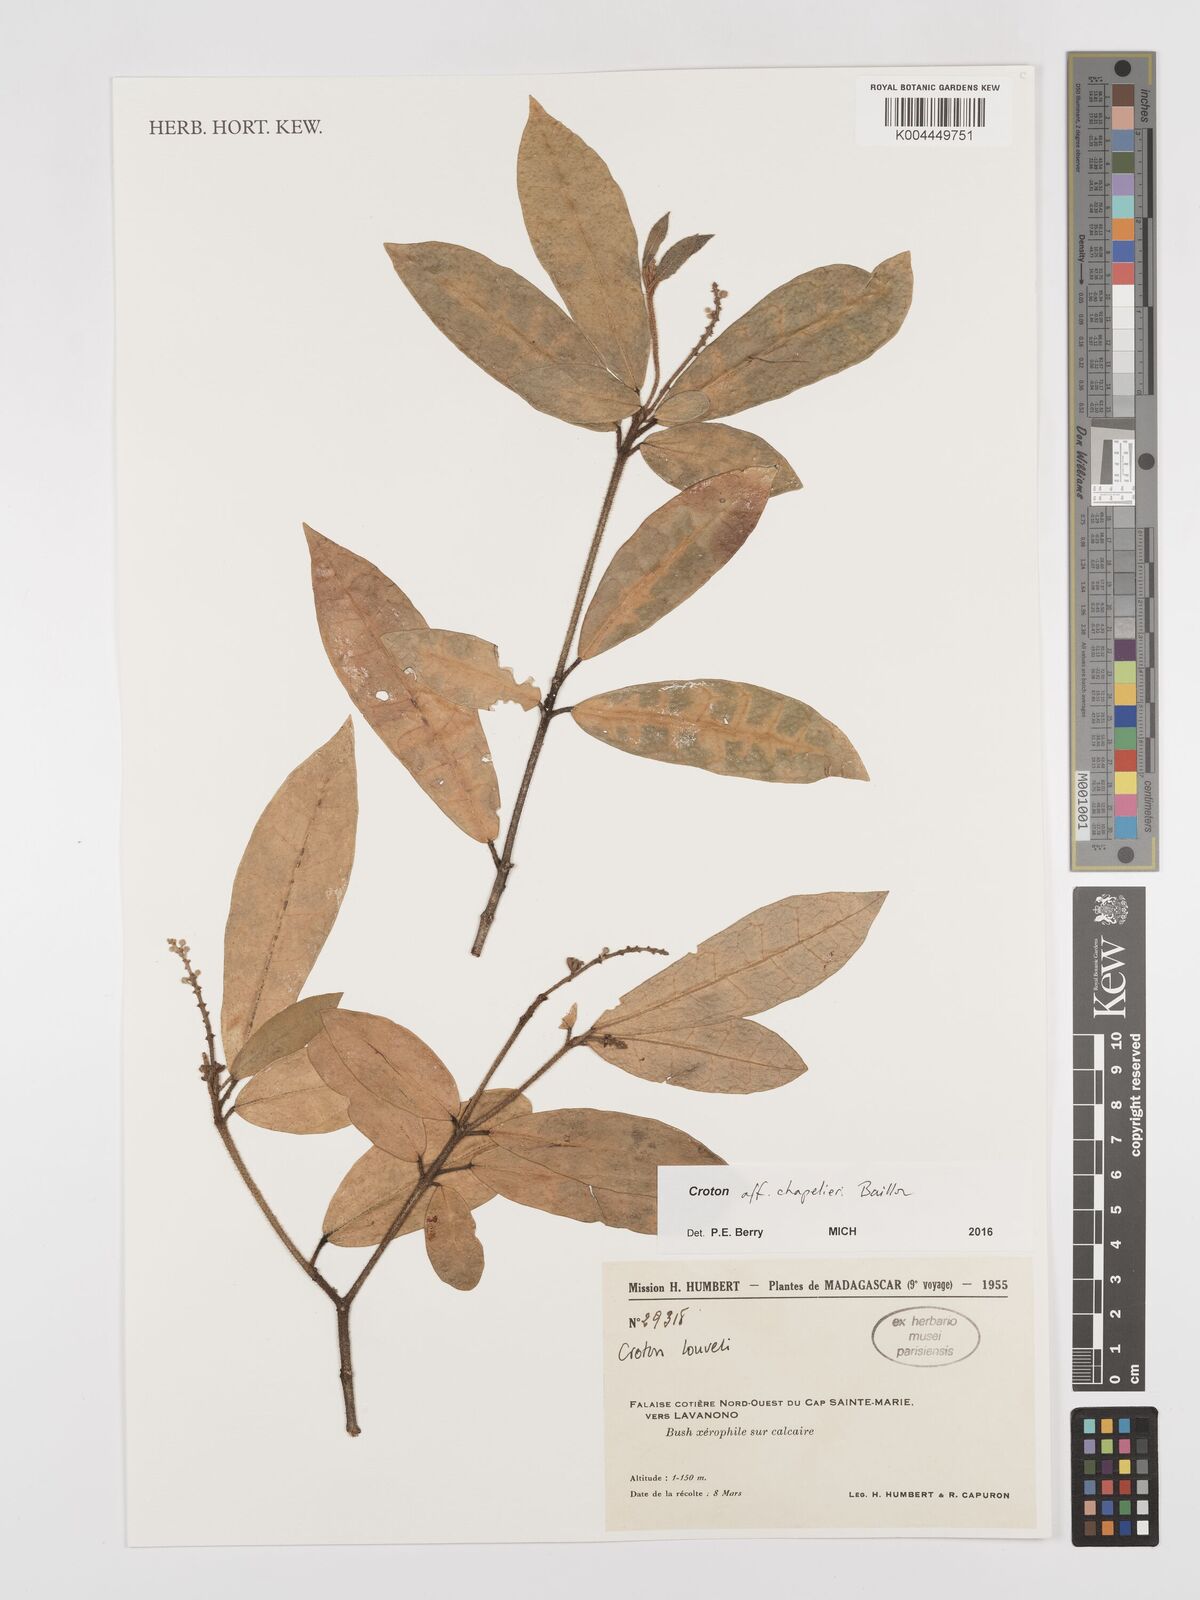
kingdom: Plantae
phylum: Tracheophyta
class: Magnoliopsida
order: Malpighiales
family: Euphorbiaceae
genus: Croton
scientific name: Croton chapelieri
